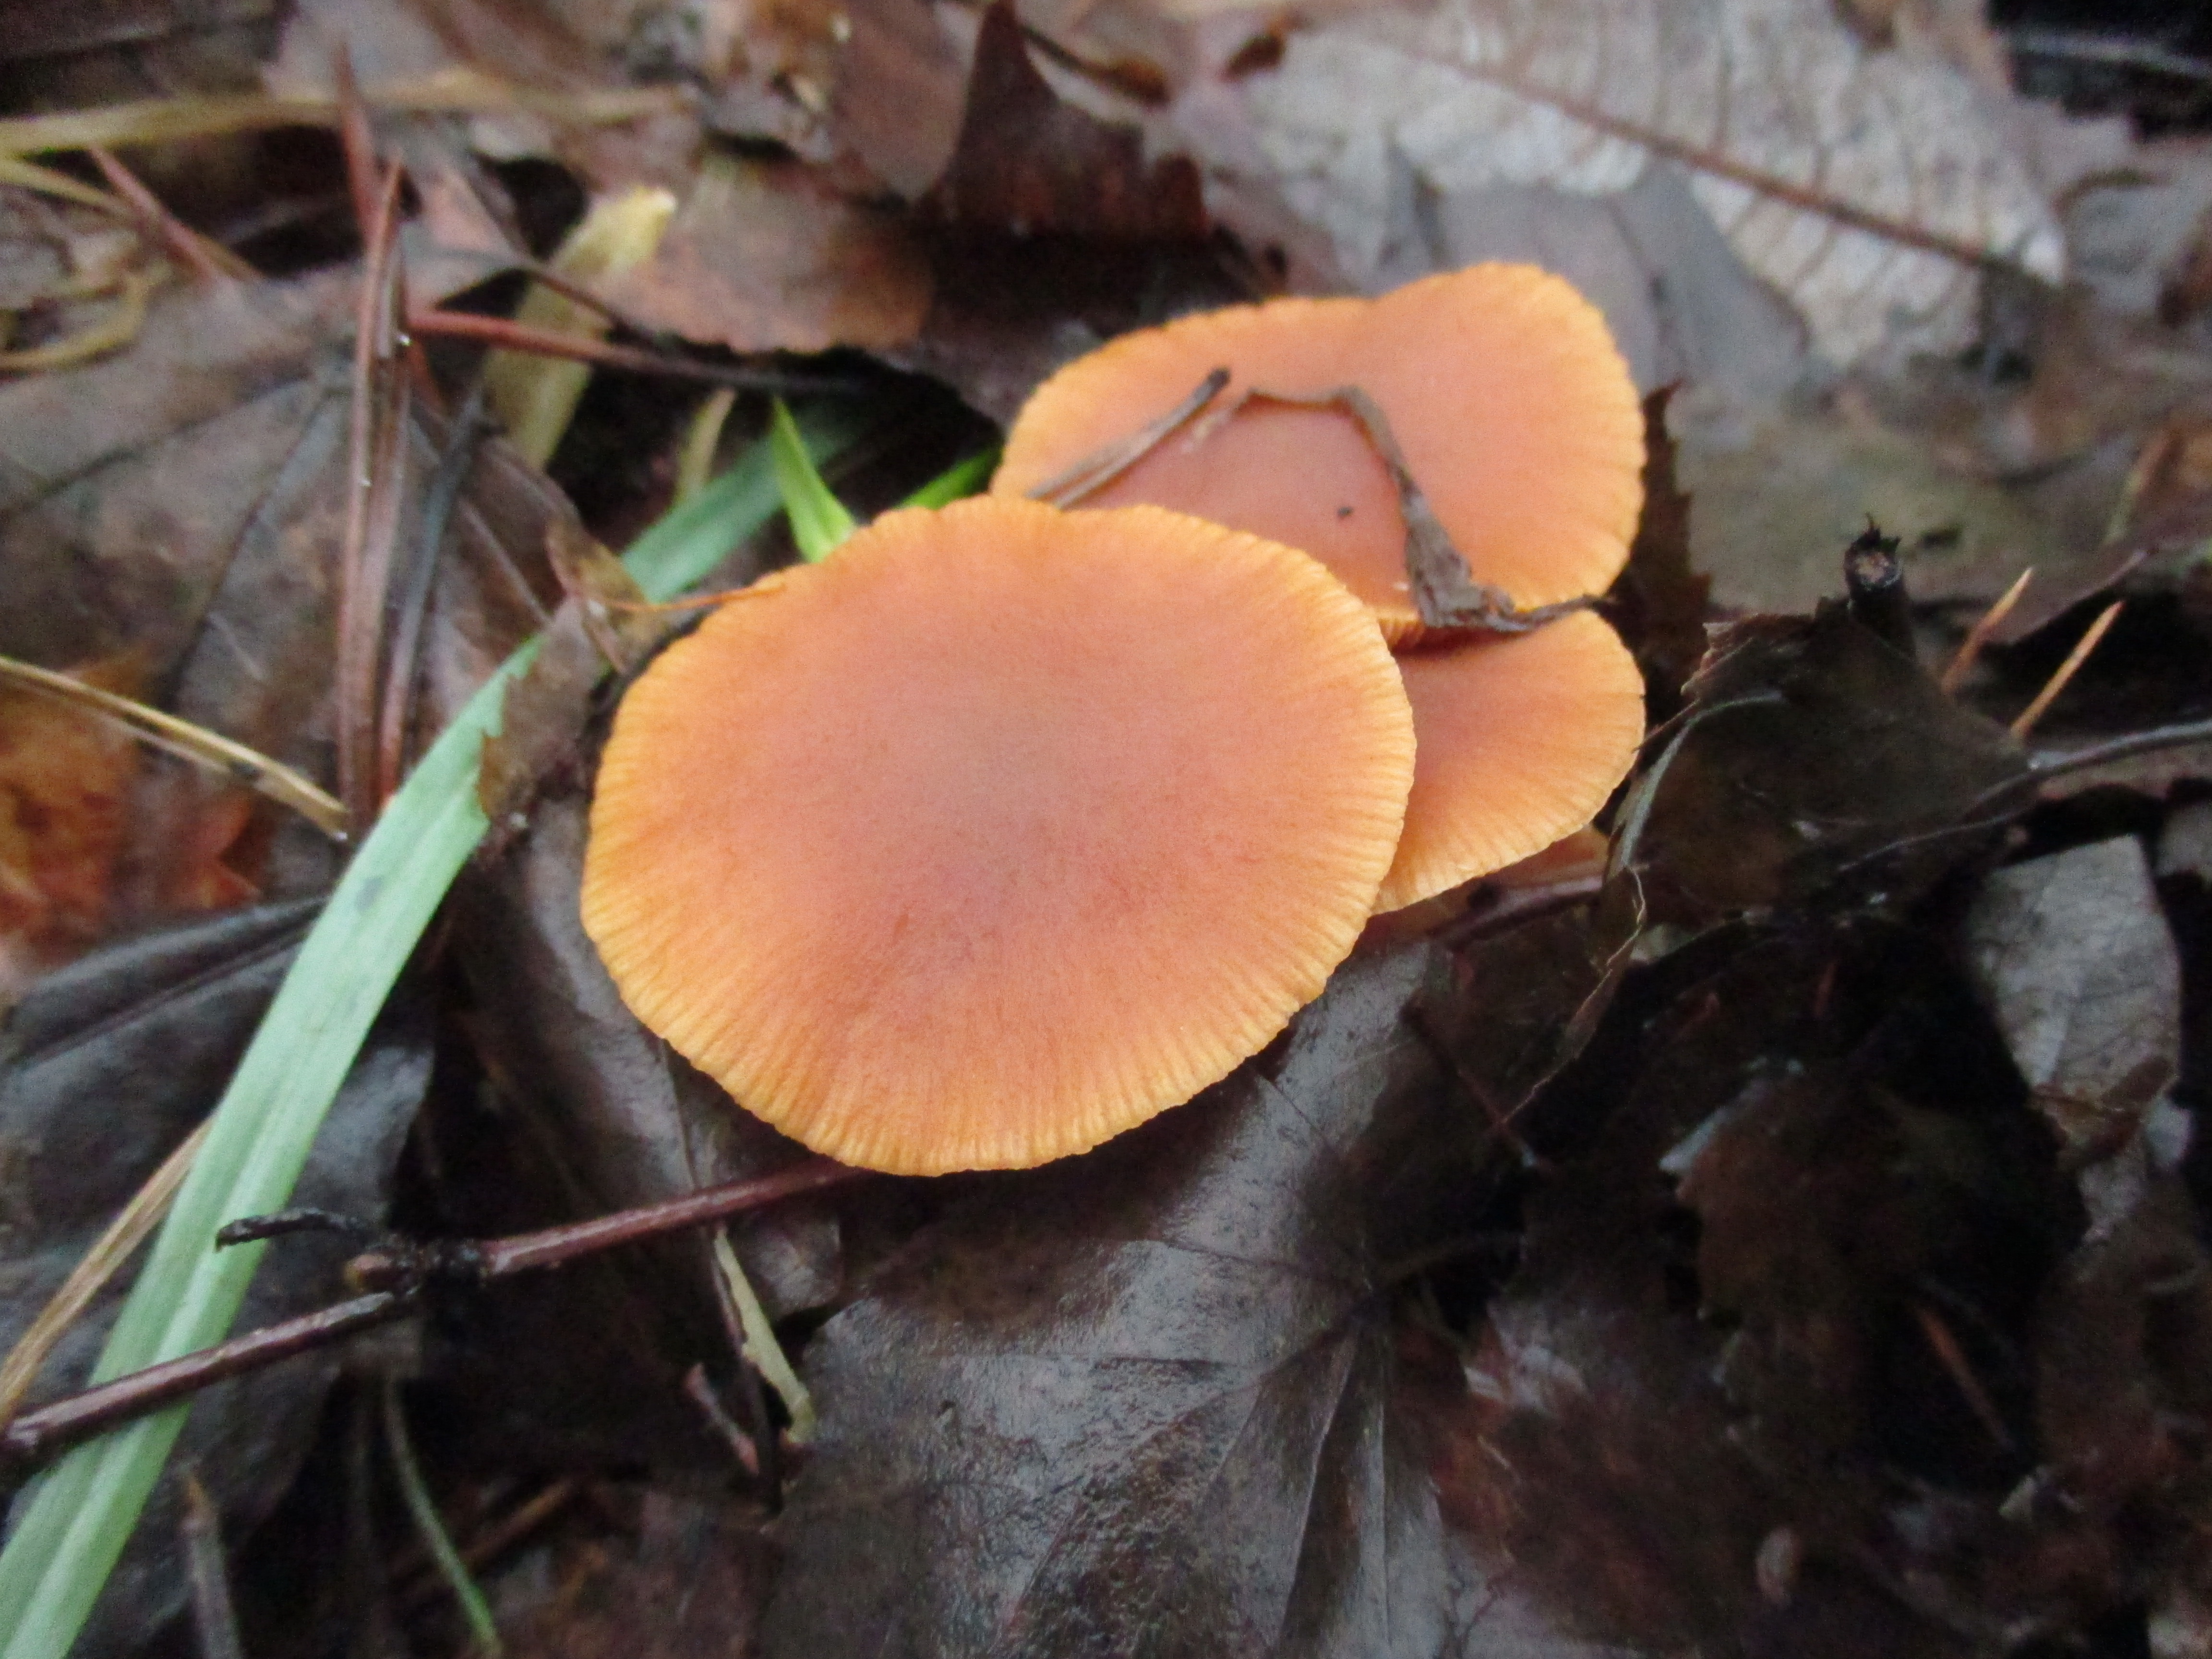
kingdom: Fungi
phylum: Basidiomycota
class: Agaricomycetes
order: Agaricales
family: Tubariaceae
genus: Tubaria
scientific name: Tubaria furfuracea
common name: Scurfy twiglet
